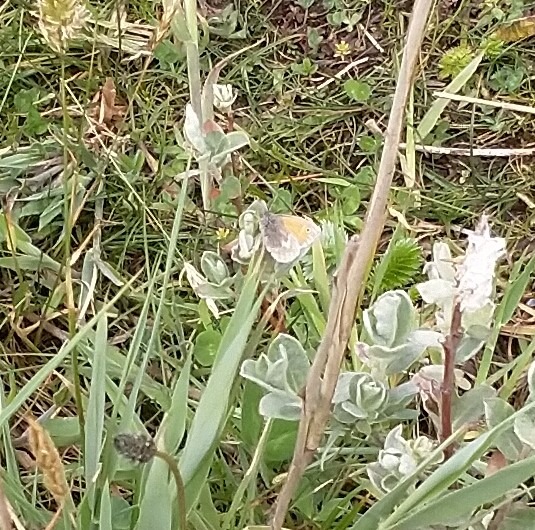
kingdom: Animalia
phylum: Arthropoda
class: Insecta
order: Lepidoptera
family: Nymphalidae
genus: Coenonympha
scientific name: Coenonympha pamphilus
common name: Okkergul randøje
